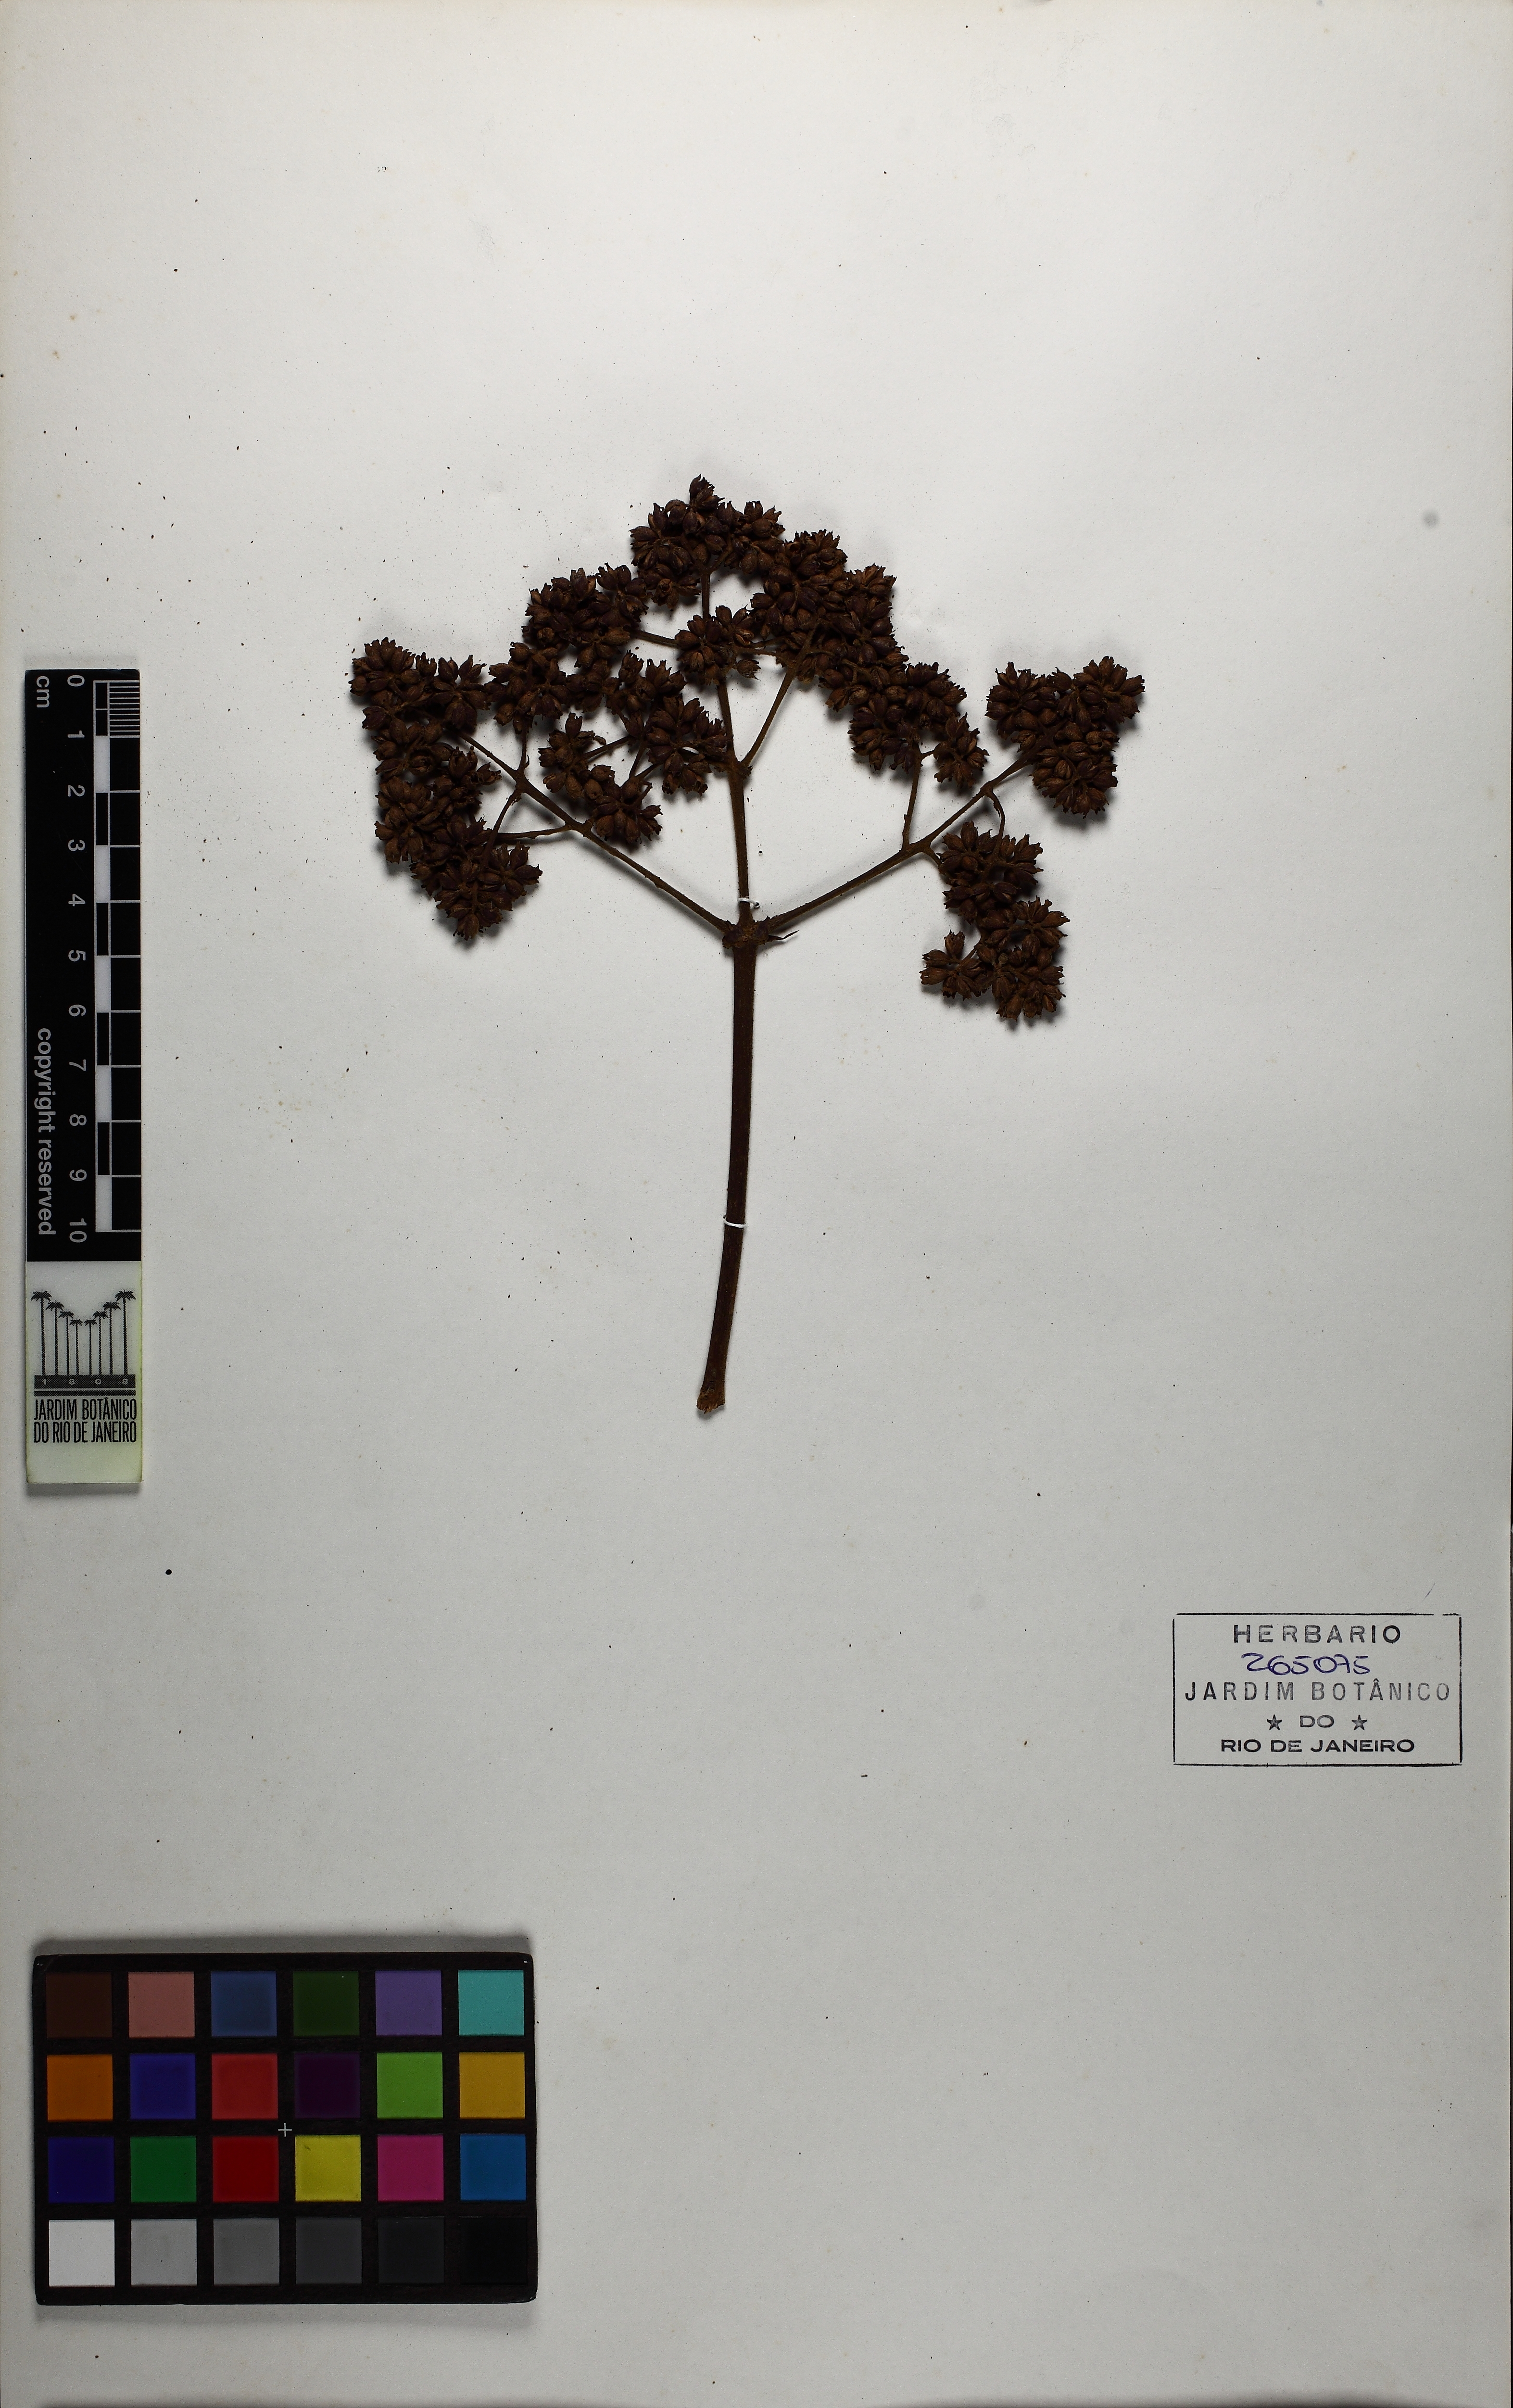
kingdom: Plantae
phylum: Tracheophyta
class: Magnoliopsida
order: Gentianales
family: Rubiaceae
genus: Bathysa
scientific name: Bathysa australis
